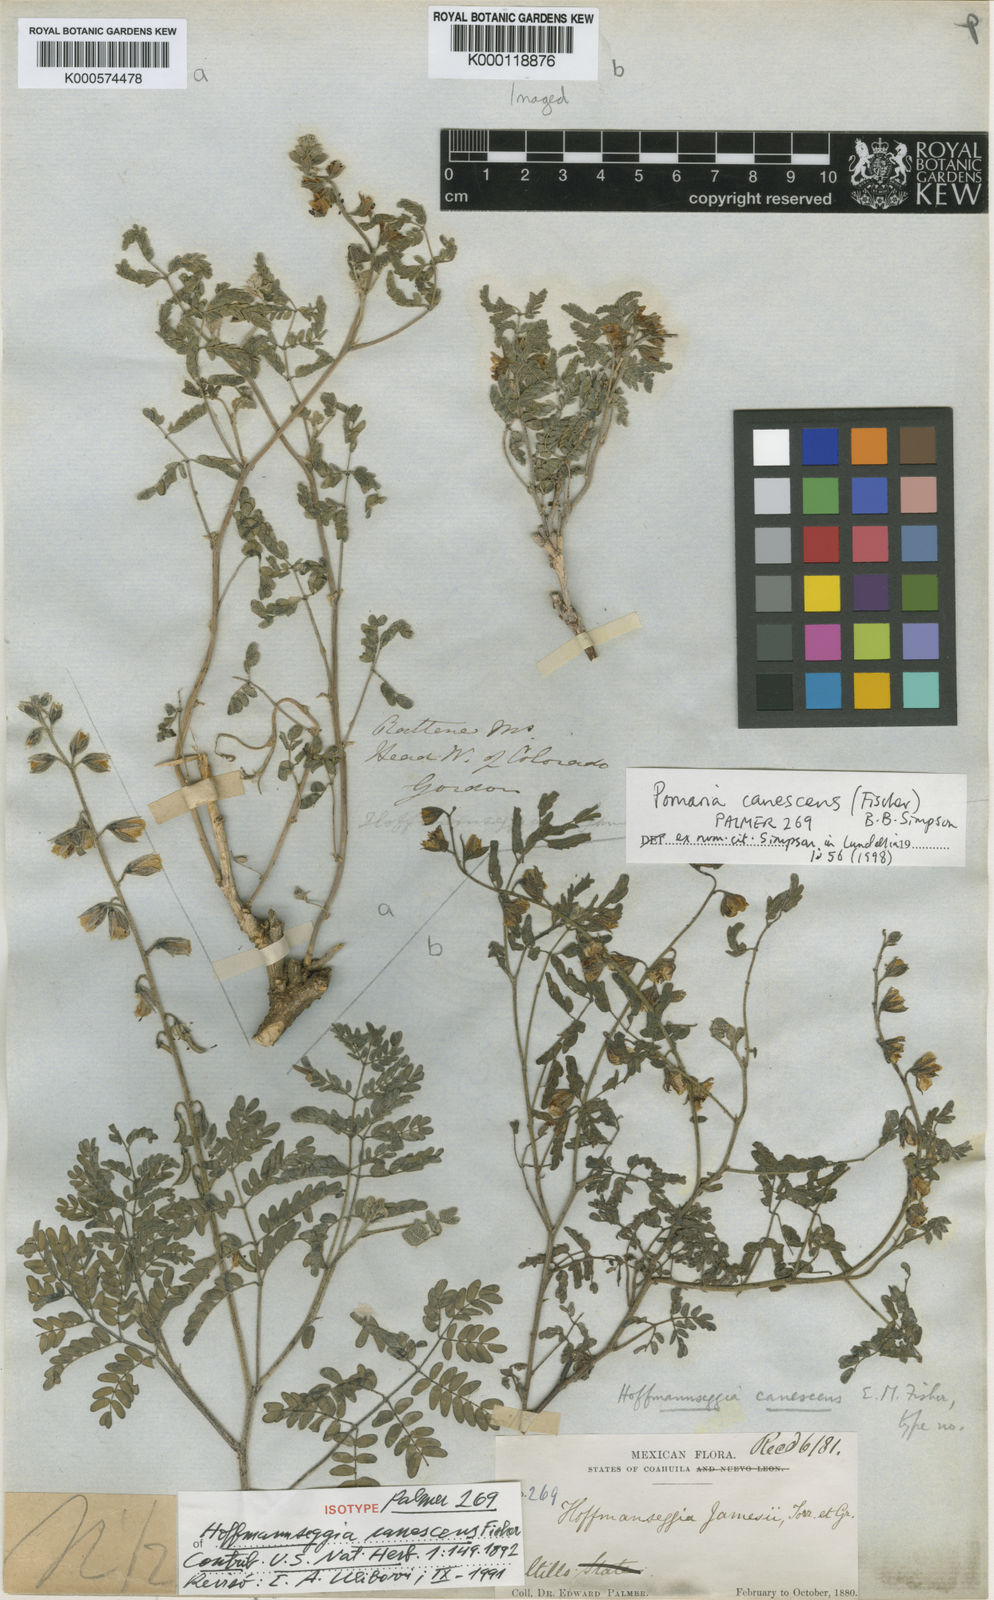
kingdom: Plantae
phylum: Tracheophyta
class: Magnoliopsida
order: Fabales
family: Fabaceae
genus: Pomaria
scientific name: Pomaria canescens
